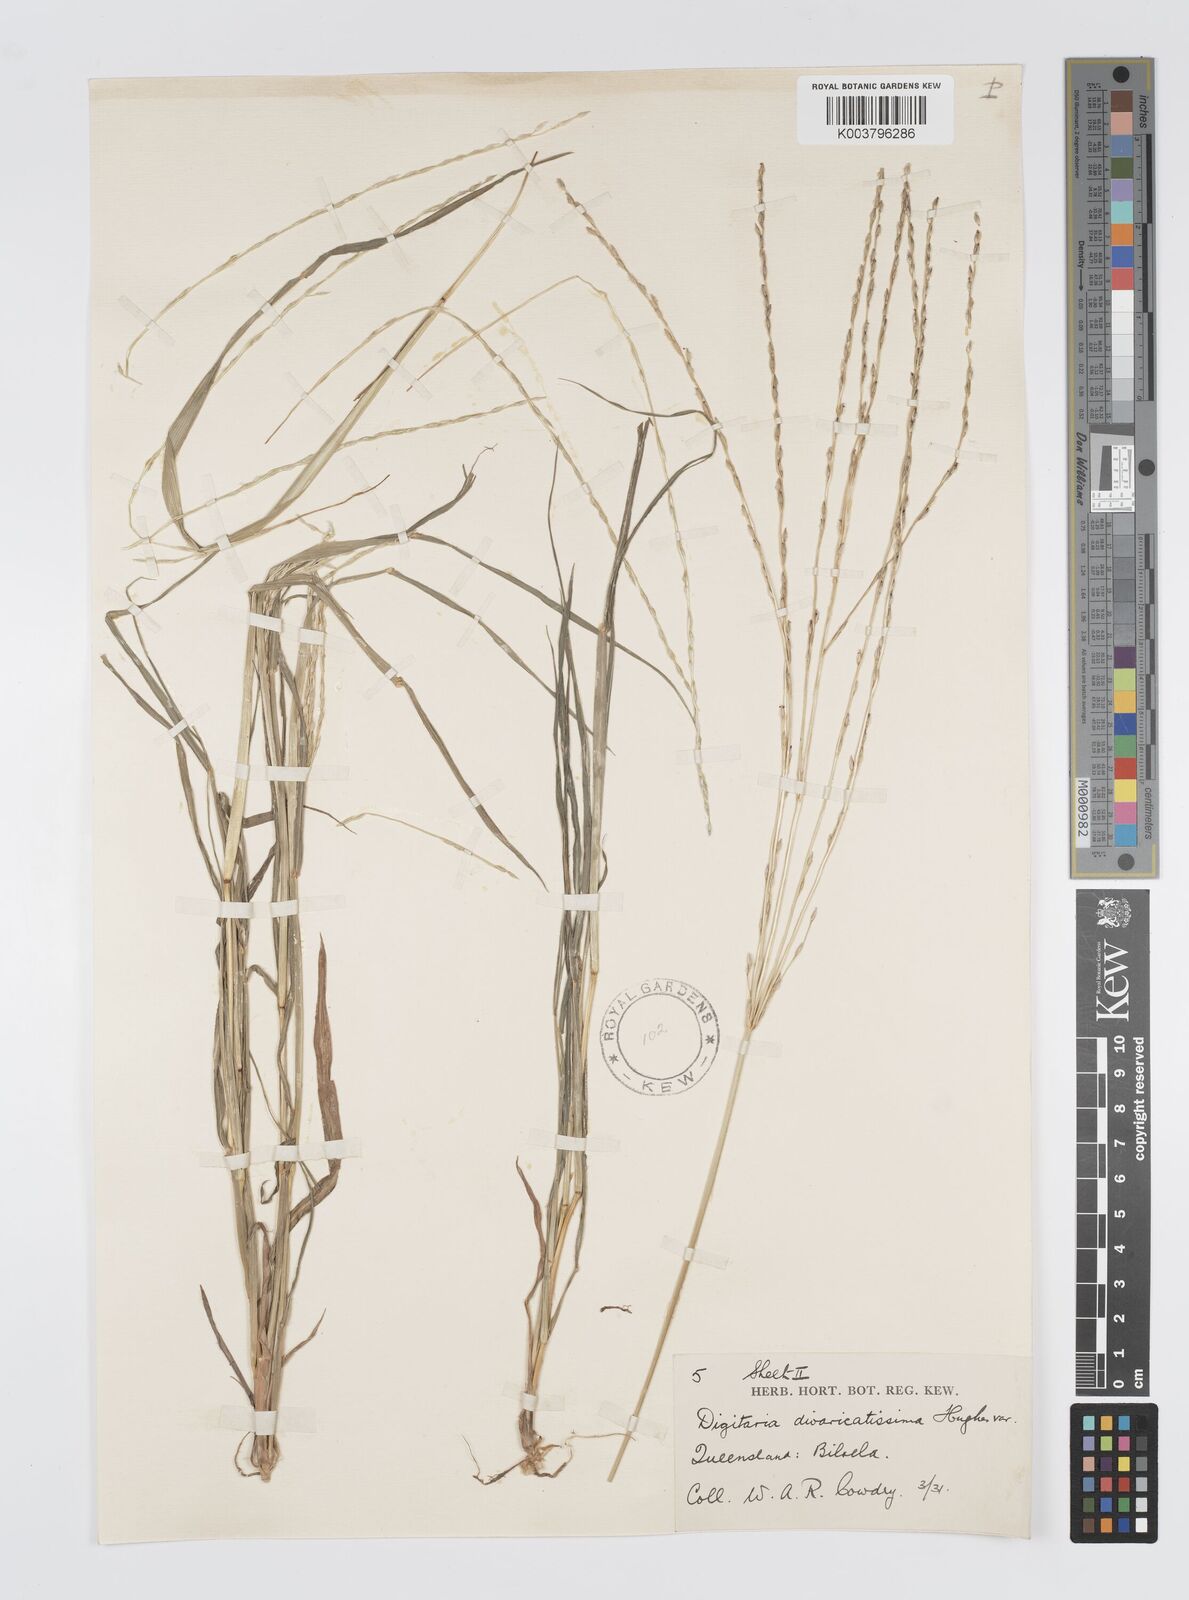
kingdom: Plantae
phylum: Tracheophyta
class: Liliopsida
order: Poales
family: Poaceae
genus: Digitaria
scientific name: Digitaria divaricatissima
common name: Crabgrass
